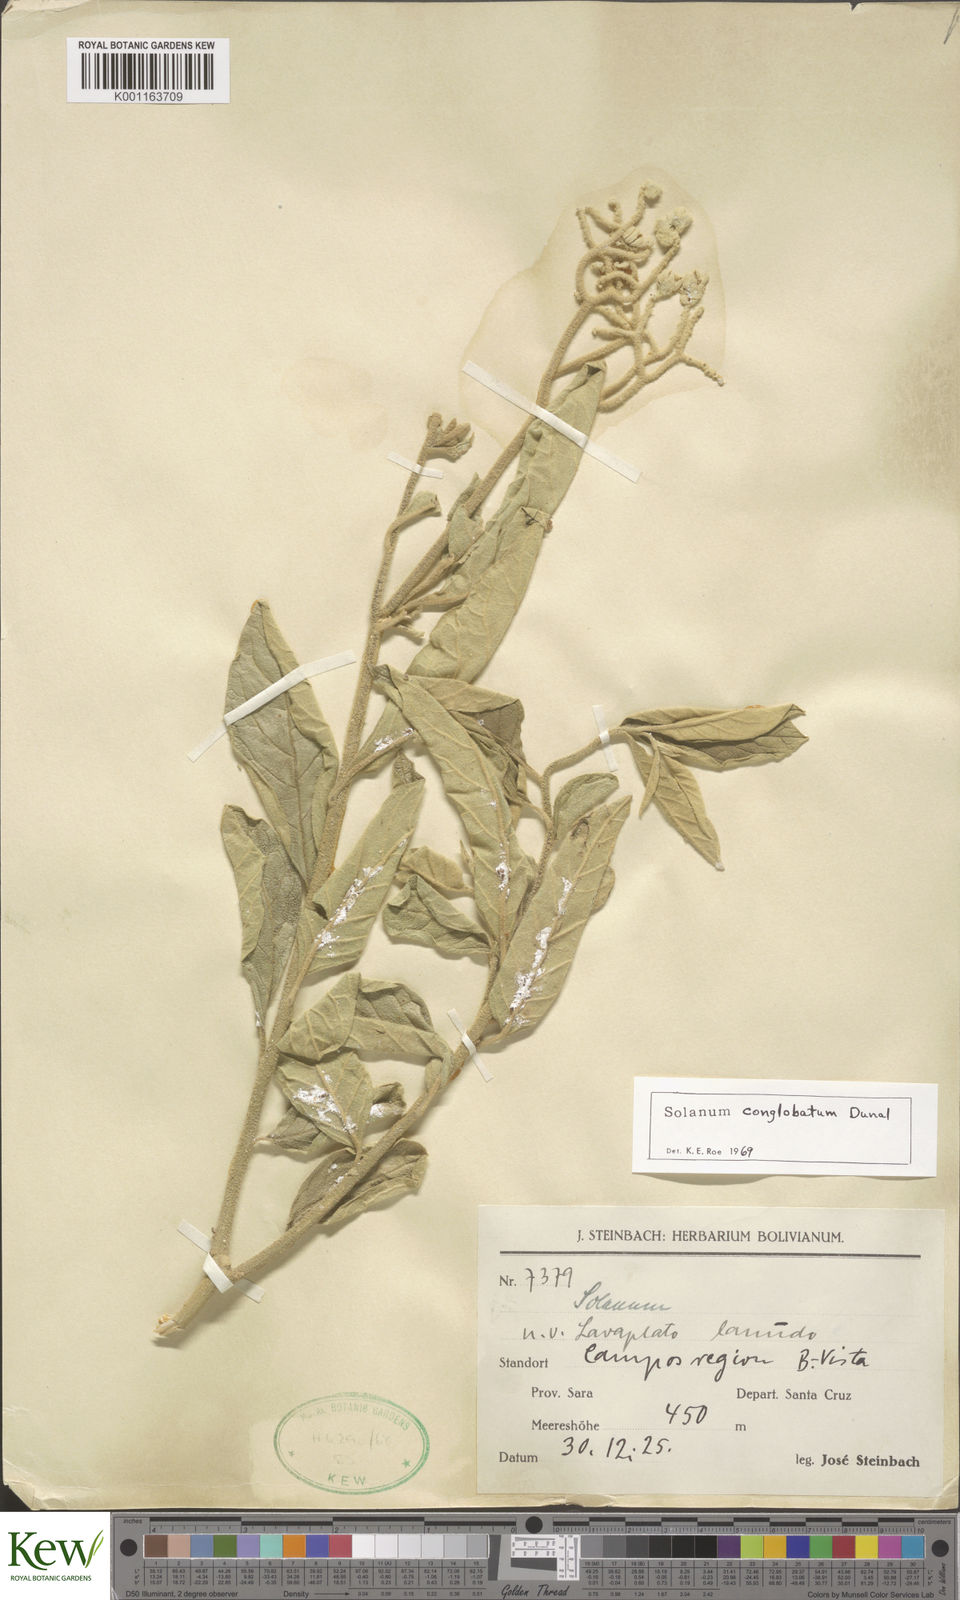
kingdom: Plantae
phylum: Tracheophyta
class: Magnoliopsida
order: Solanales
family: Solanaceae
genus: Solanum
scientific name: Solanum conglobatum
